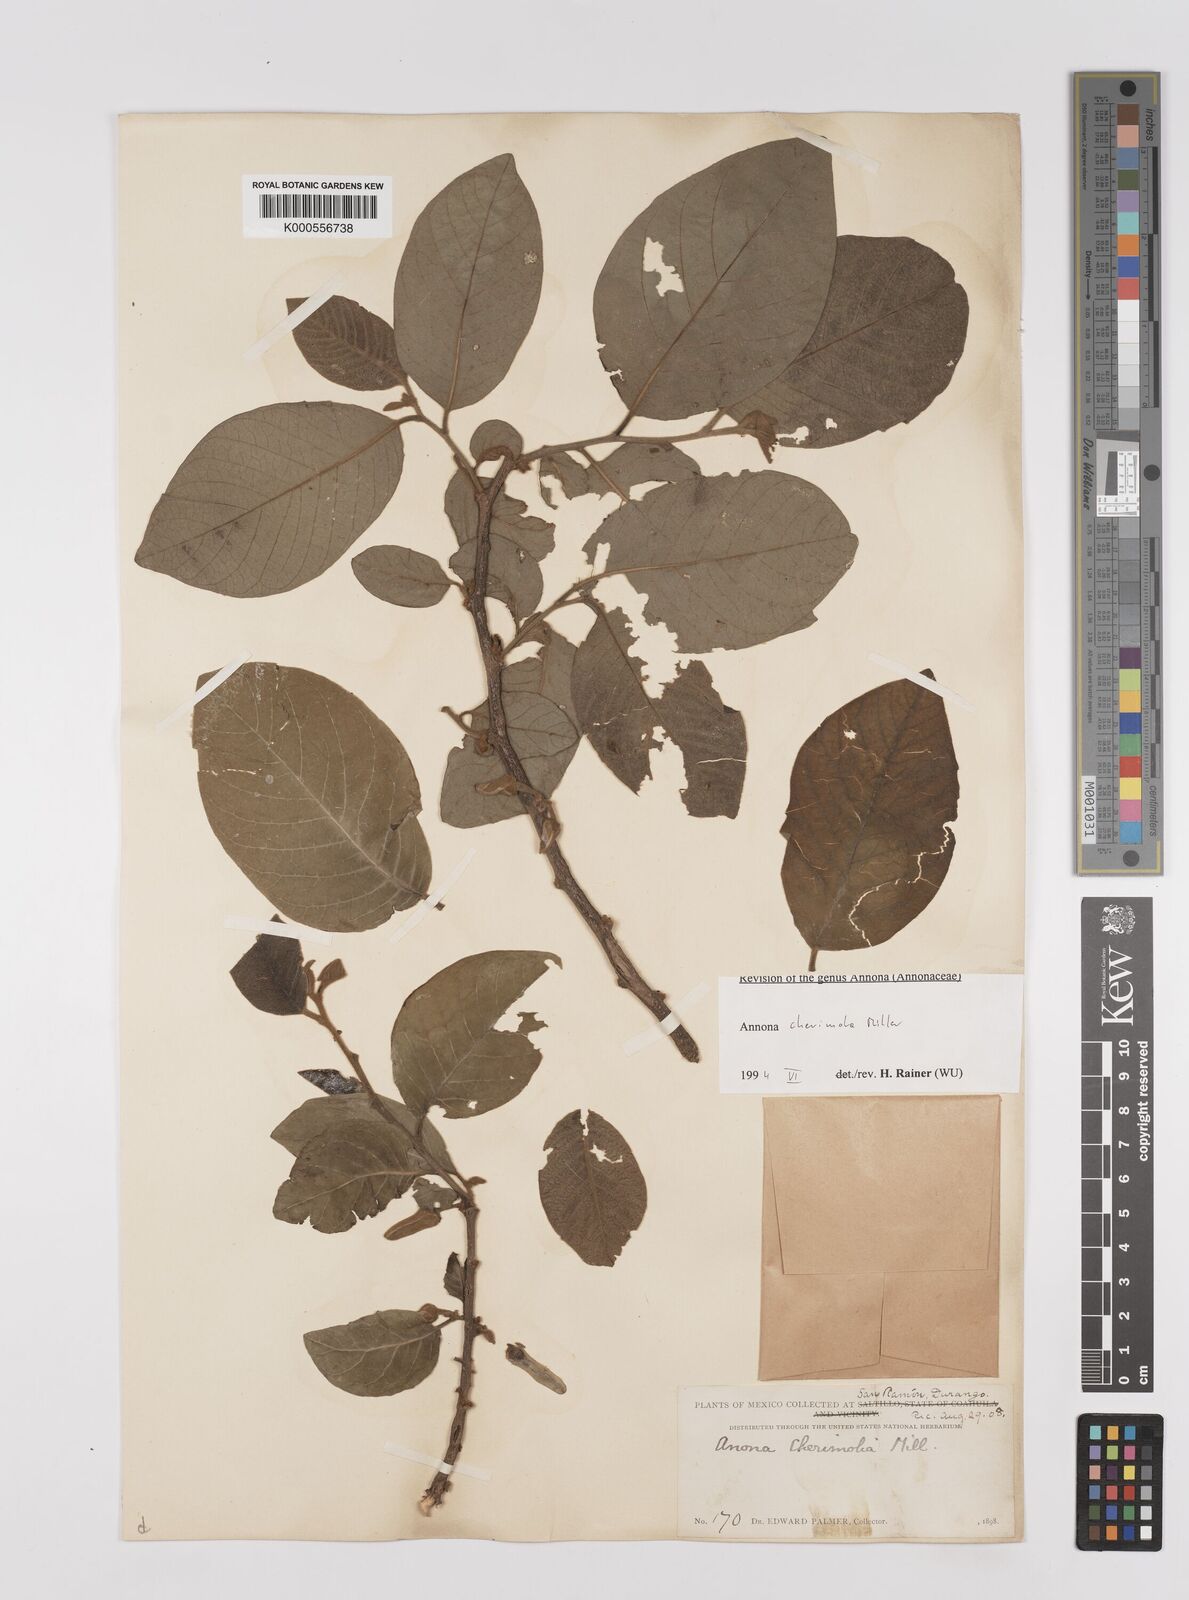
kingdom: Plantae
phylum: Tracheophyta
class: Magnoliopsida
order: Magnoliales
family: Annonaceae
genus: Annona
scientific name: Annona cherimola
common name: Cherimoya
